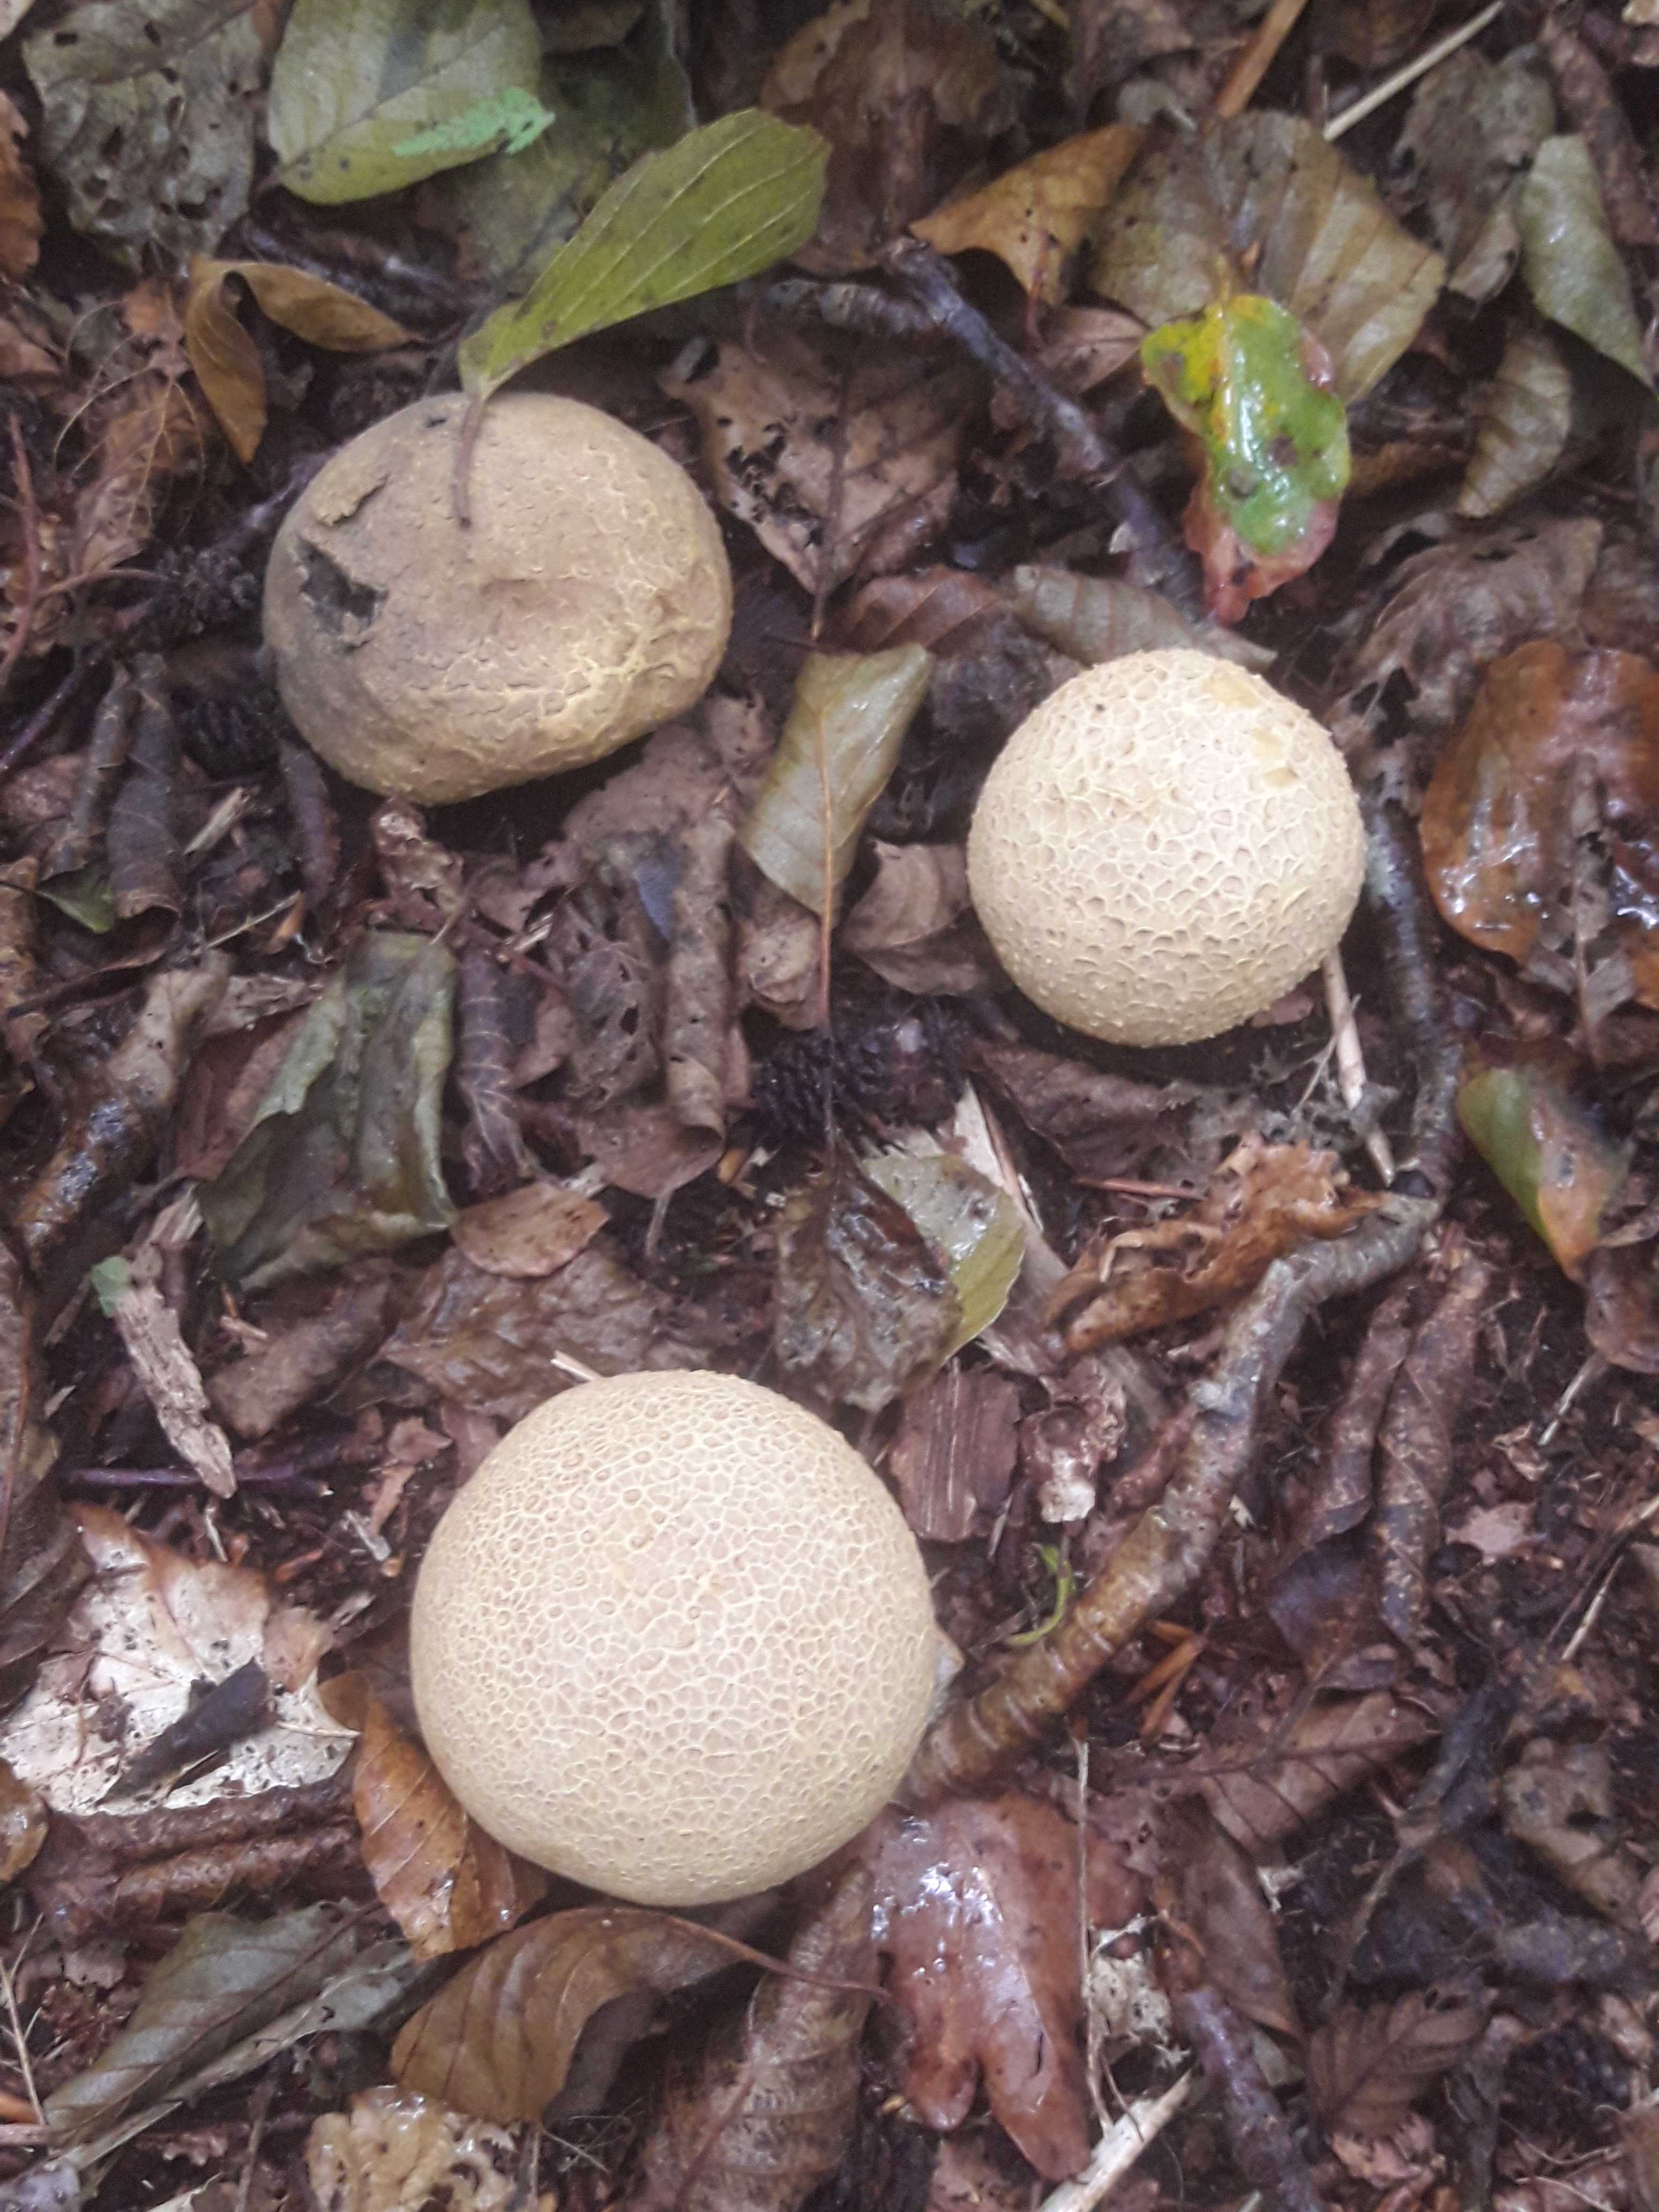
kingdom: Fungi
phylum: Basidiomycota
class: Agaricomycetes
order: Boletales
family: Sclerodermataceae
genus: Scleroderma
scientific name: Scleroderma citrinum
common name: almindelig bruskbold
